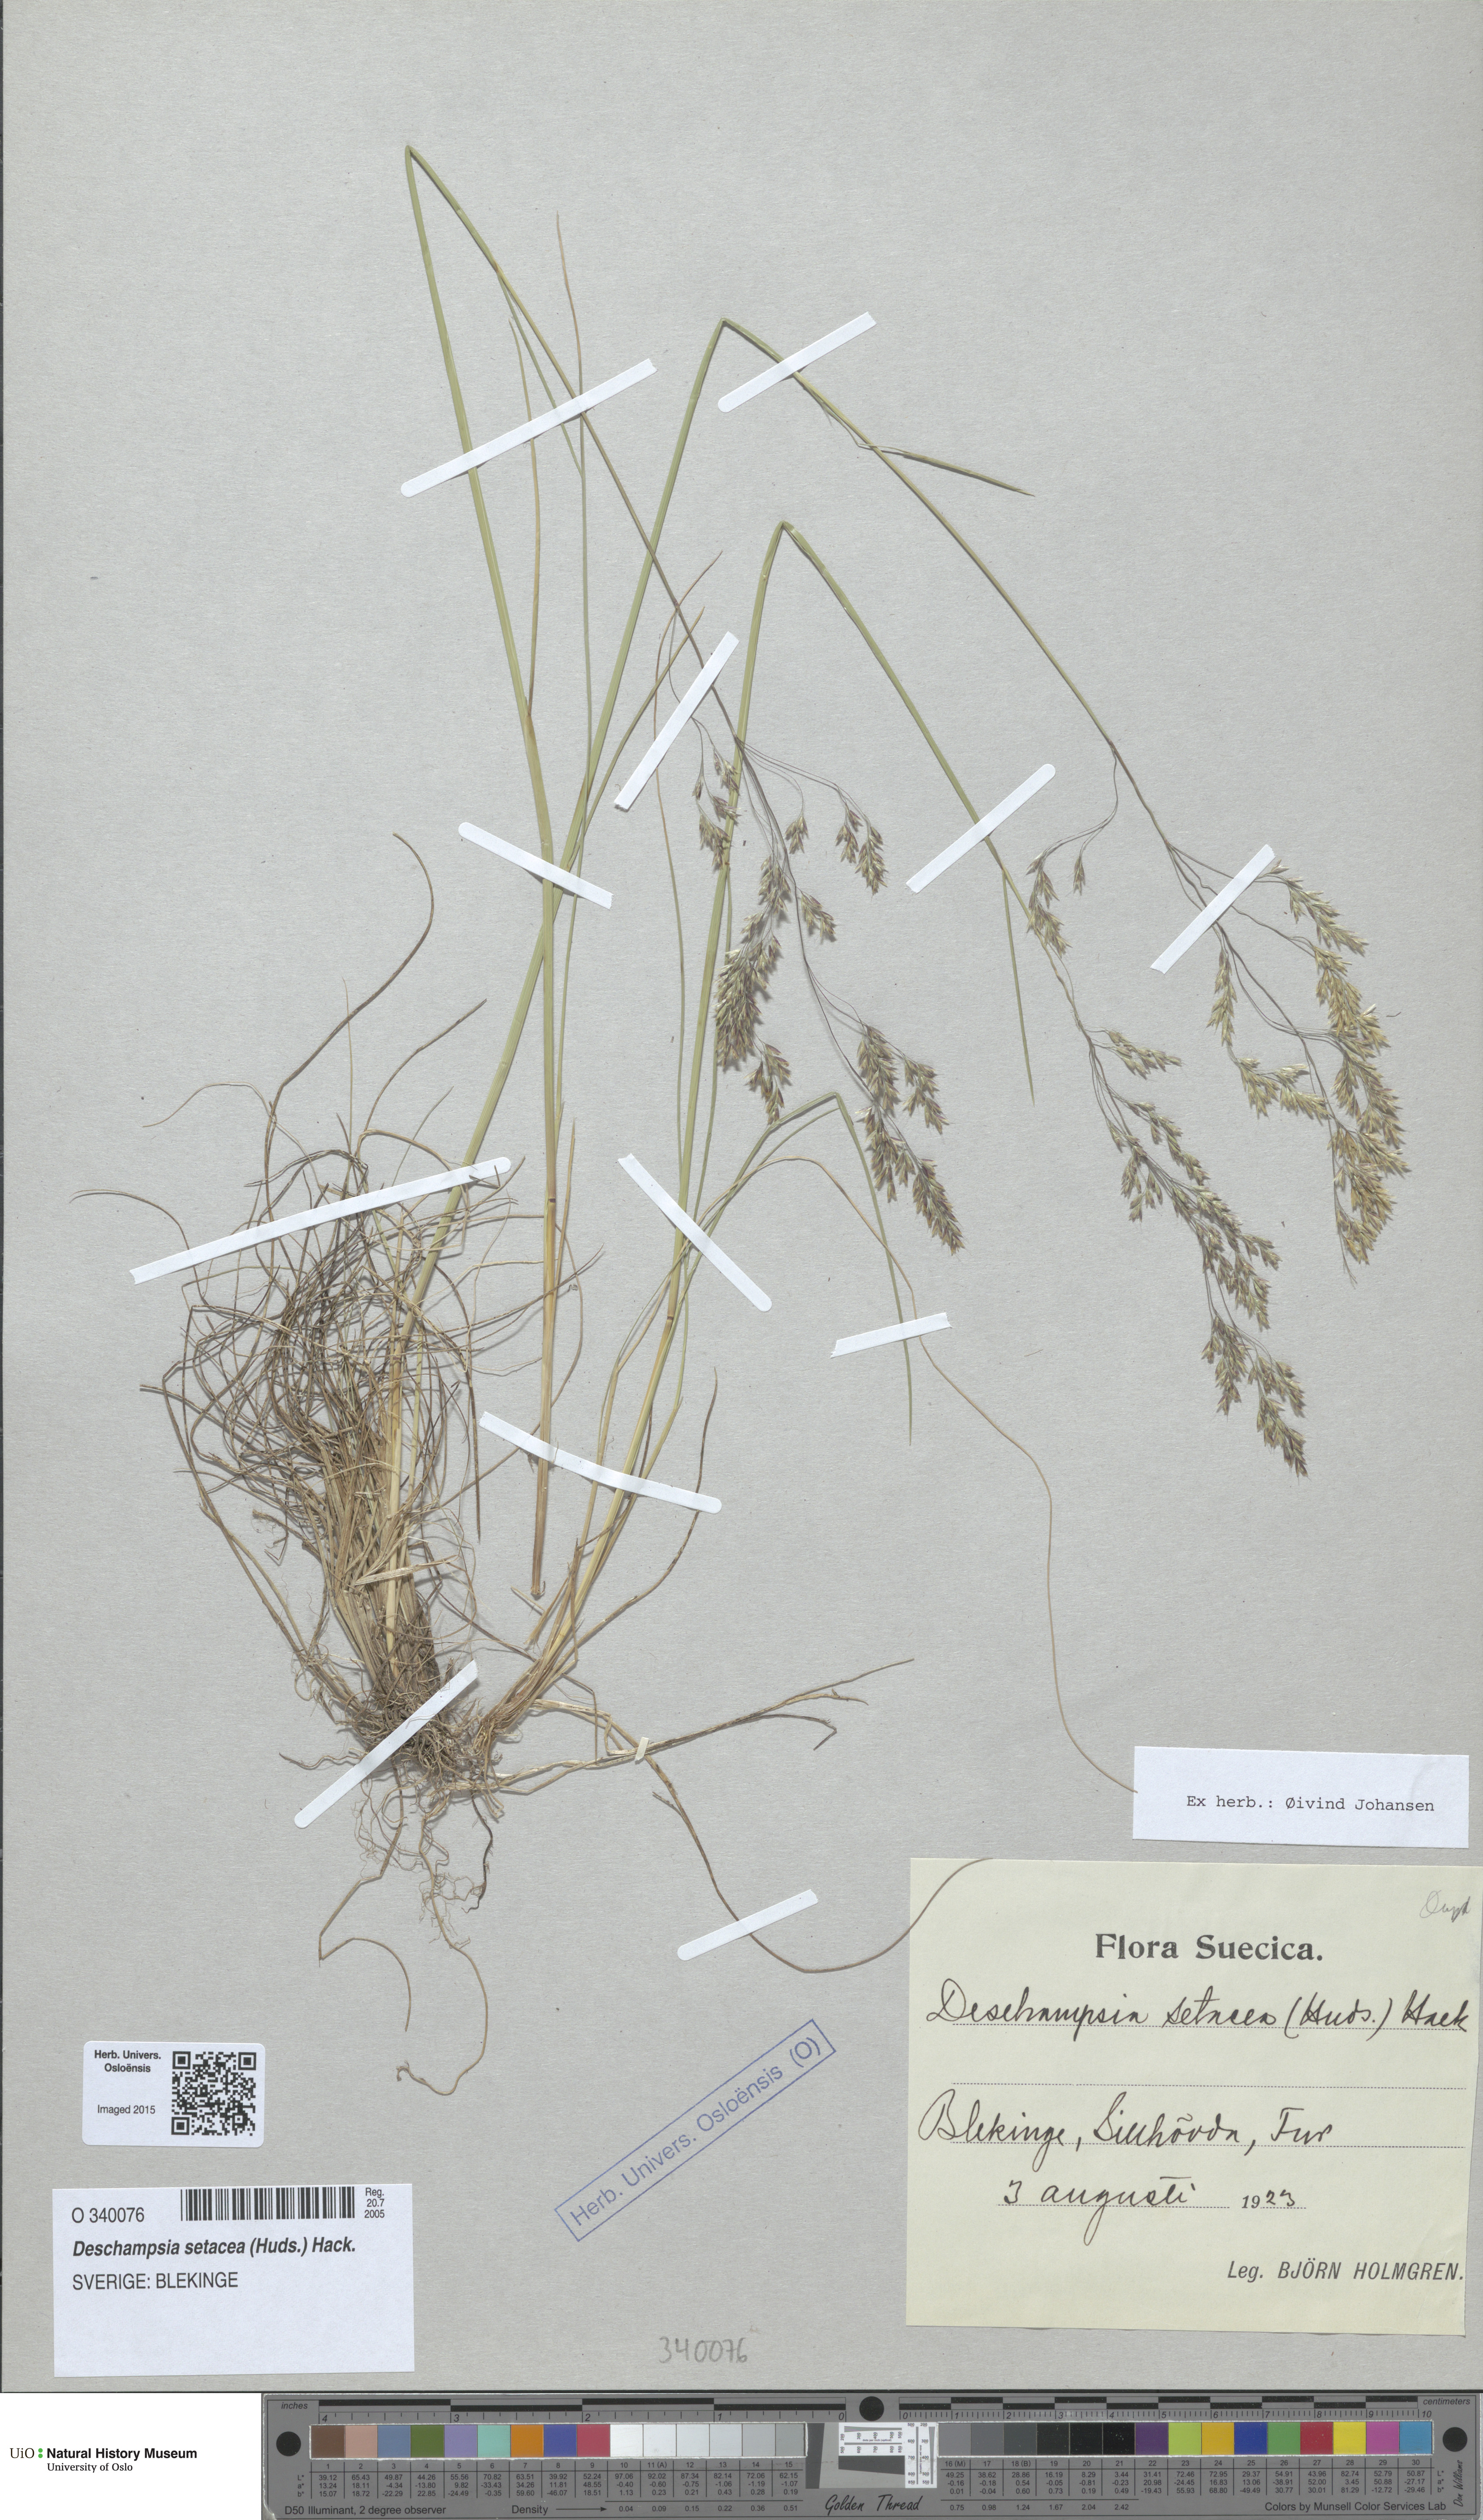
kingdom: Plantae
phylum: Tracheophyta
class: Liliopsida
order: Poales
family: Poaceae
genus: Deschampsia
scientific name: Deschampsia setacea
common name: Bog hair-grass
